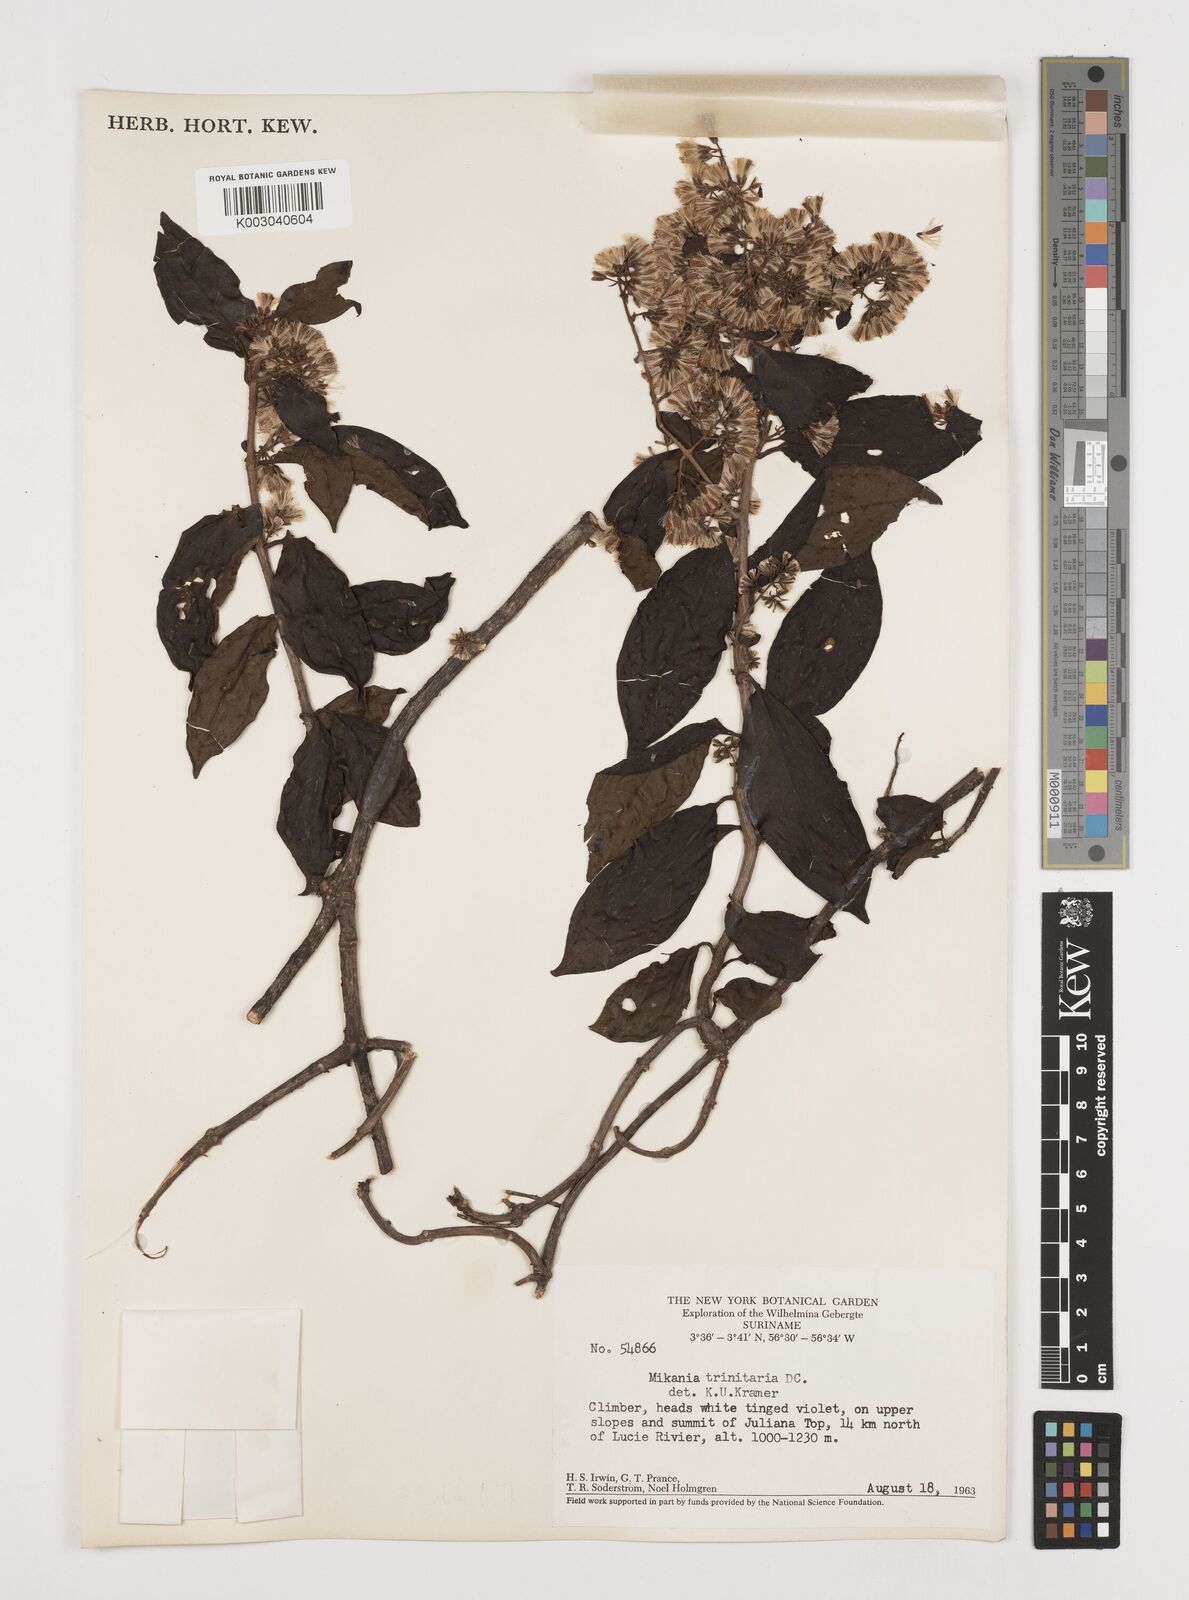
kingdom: Plantae
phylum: Tracheophyta
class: Magnoliopsida
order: Asterales
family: Asteraceae
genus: Mikania
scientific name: Mikania trinitaria
